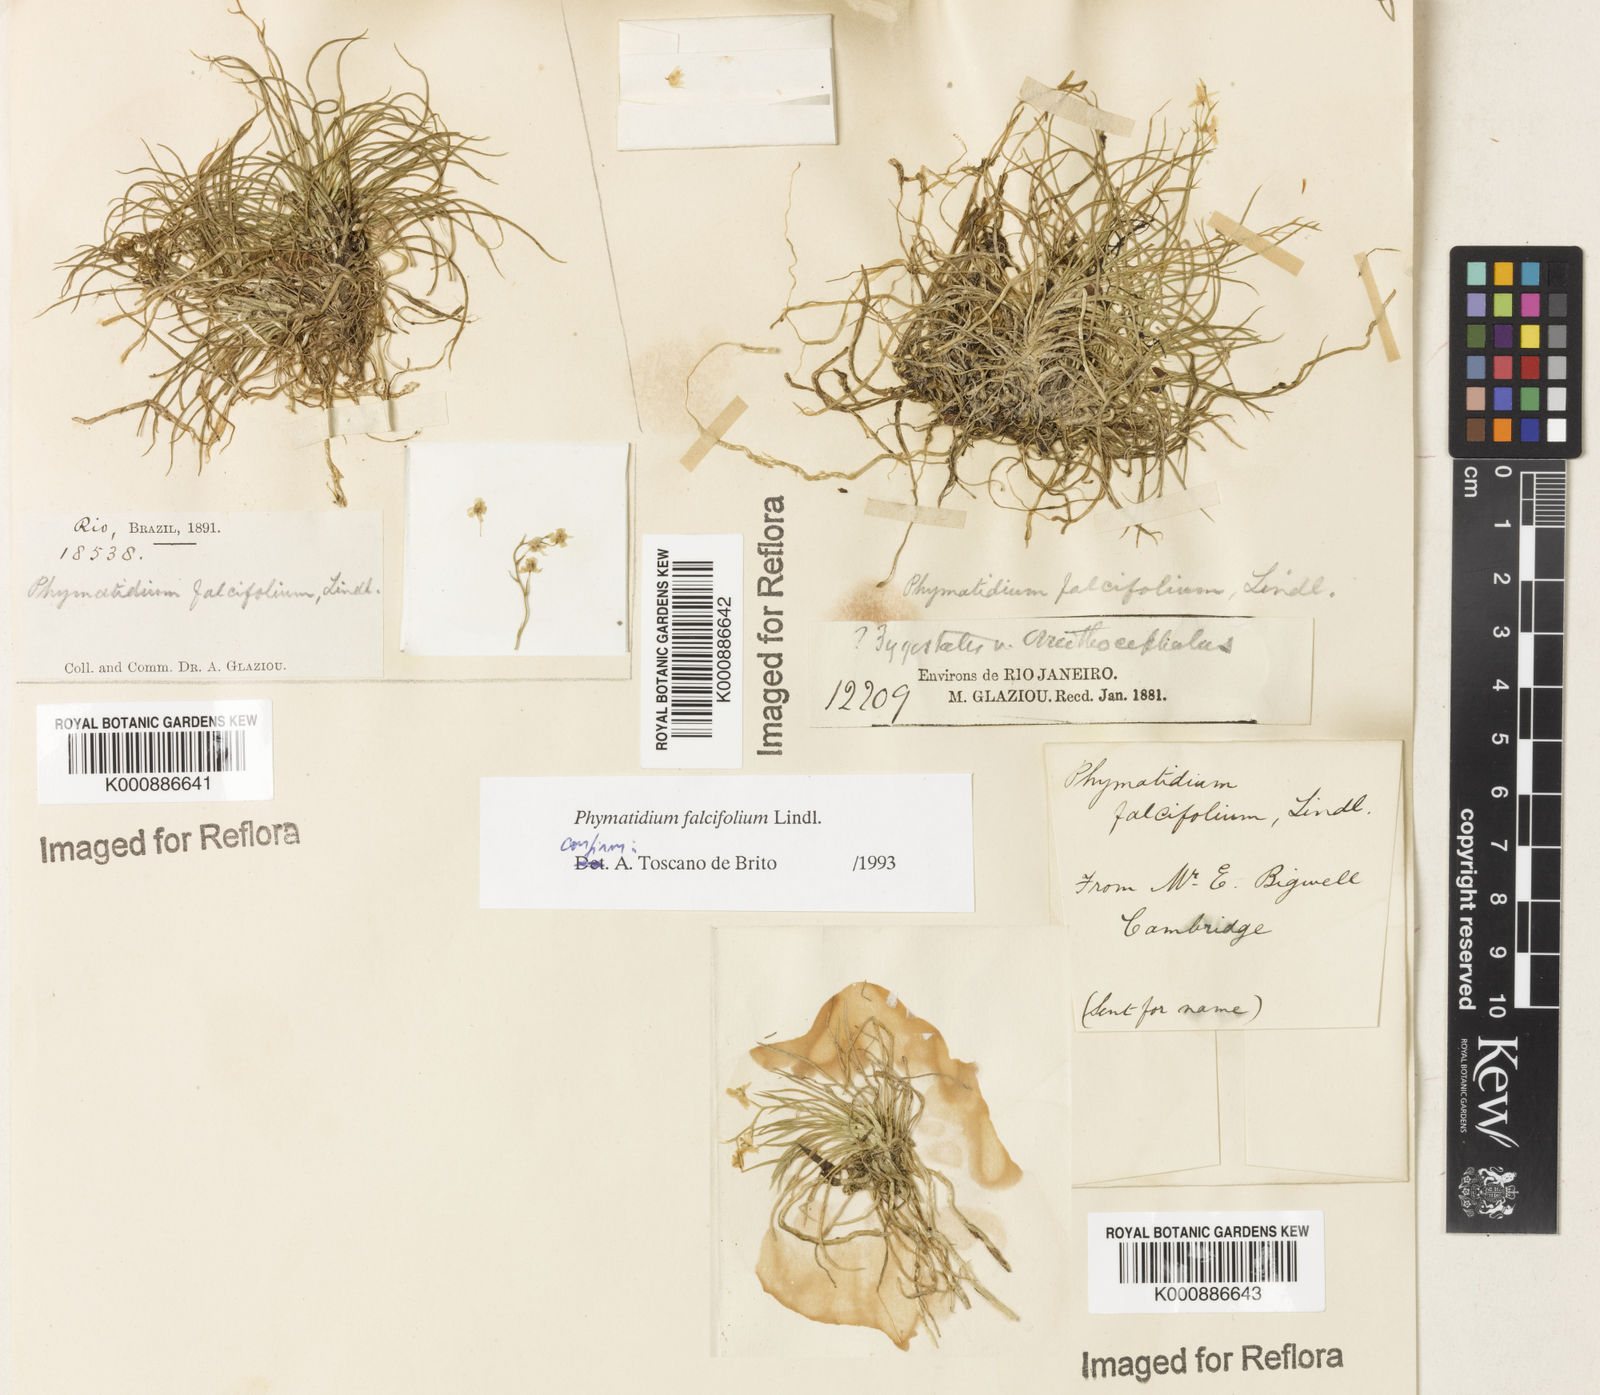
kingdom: Plantae
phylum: Tracheophyta
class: Liliopsida
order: Asparagales
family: Orchidaceae
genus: Phymatidium
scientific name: Phymatidium falcifolium
